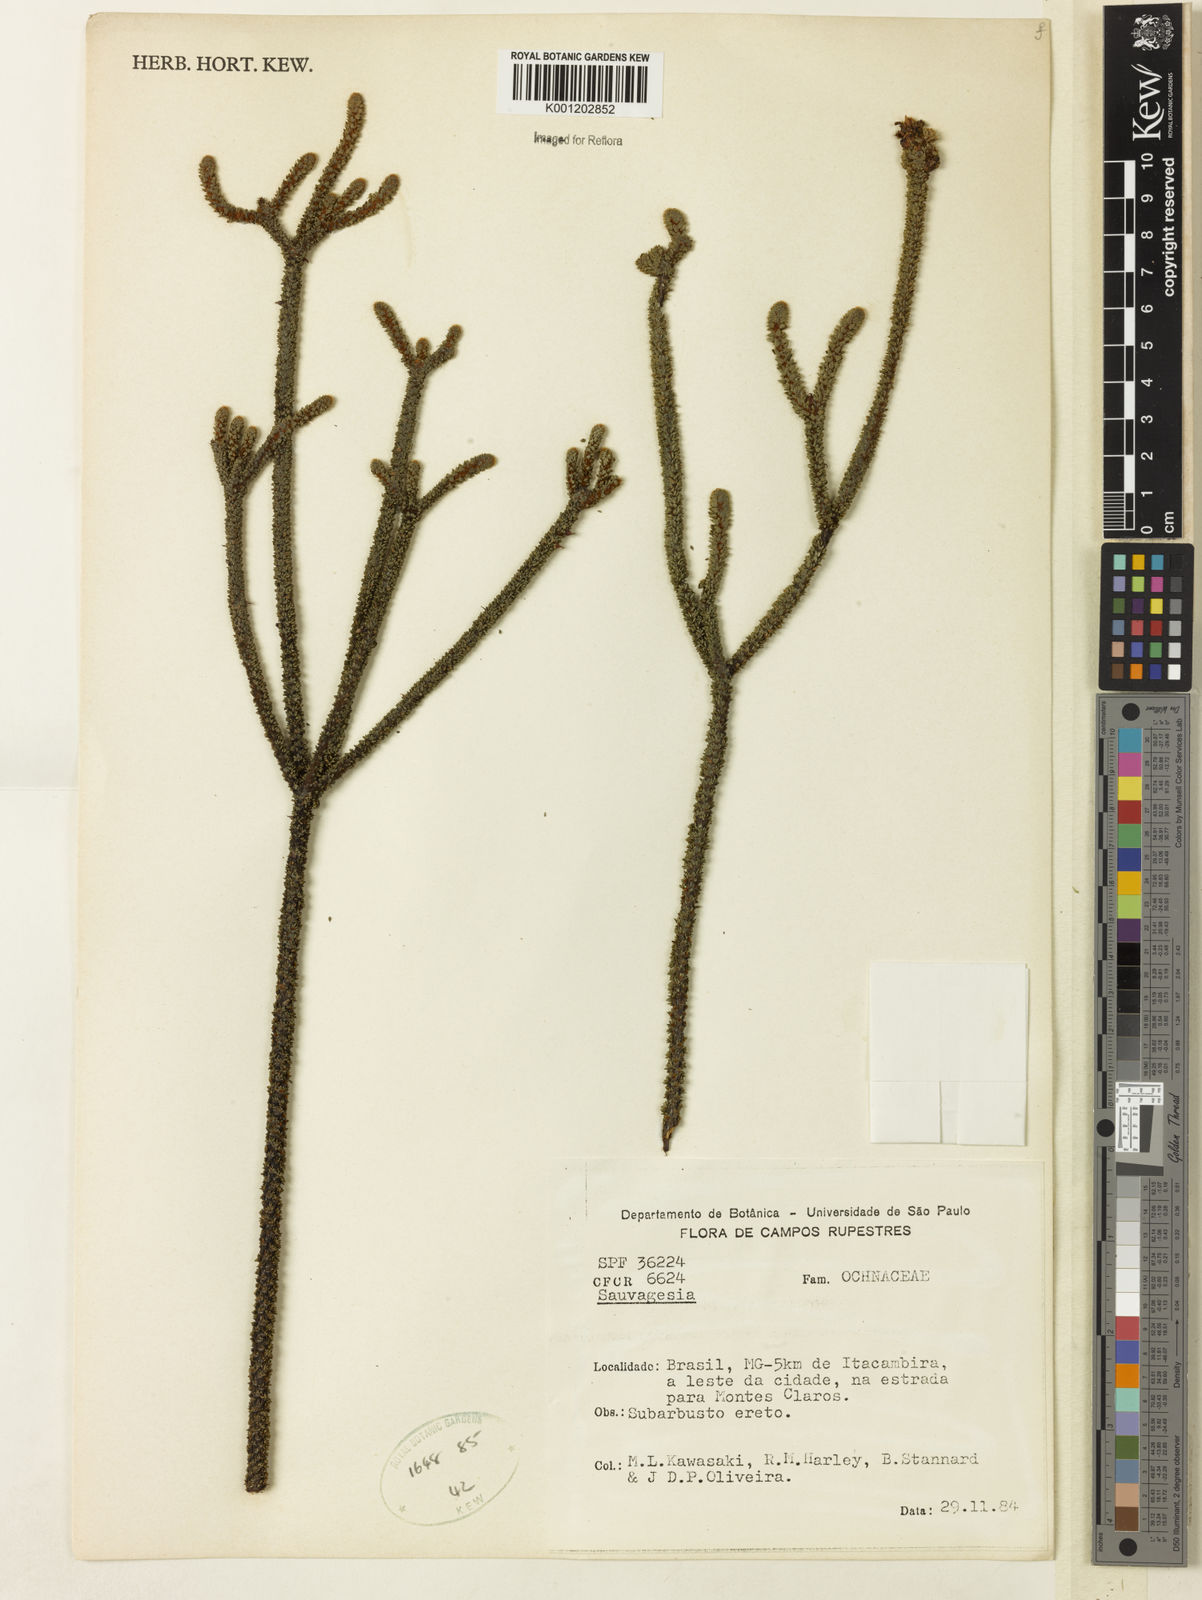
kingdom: Plantae
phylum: Tracheophyta
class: Magnoliopsida
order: Malpighiales
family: Ochnaceae
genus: Sauvagesia
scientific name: Sauvagesia
